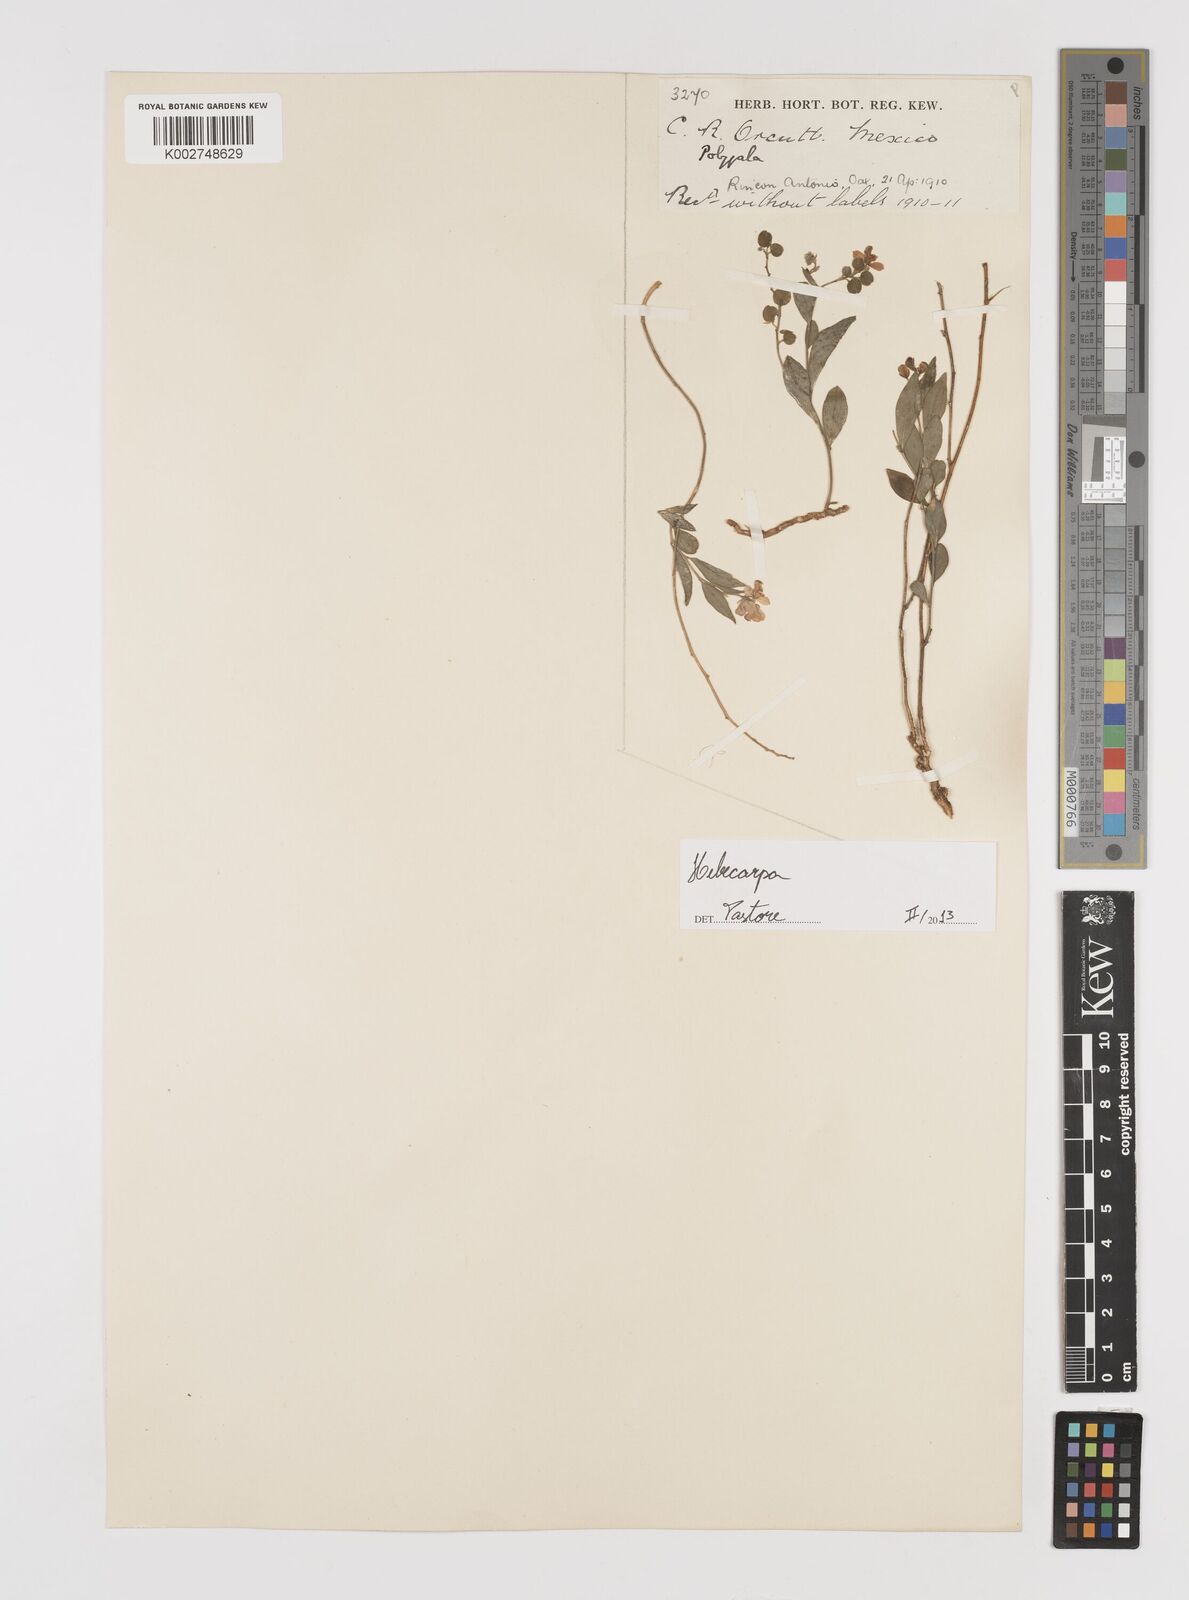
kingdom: Plantae
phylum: Tracheophyta
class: Magnoliopsida
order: Fabales
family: Polygalaceae
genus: Hebecarpa
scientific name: Hebecarpa
